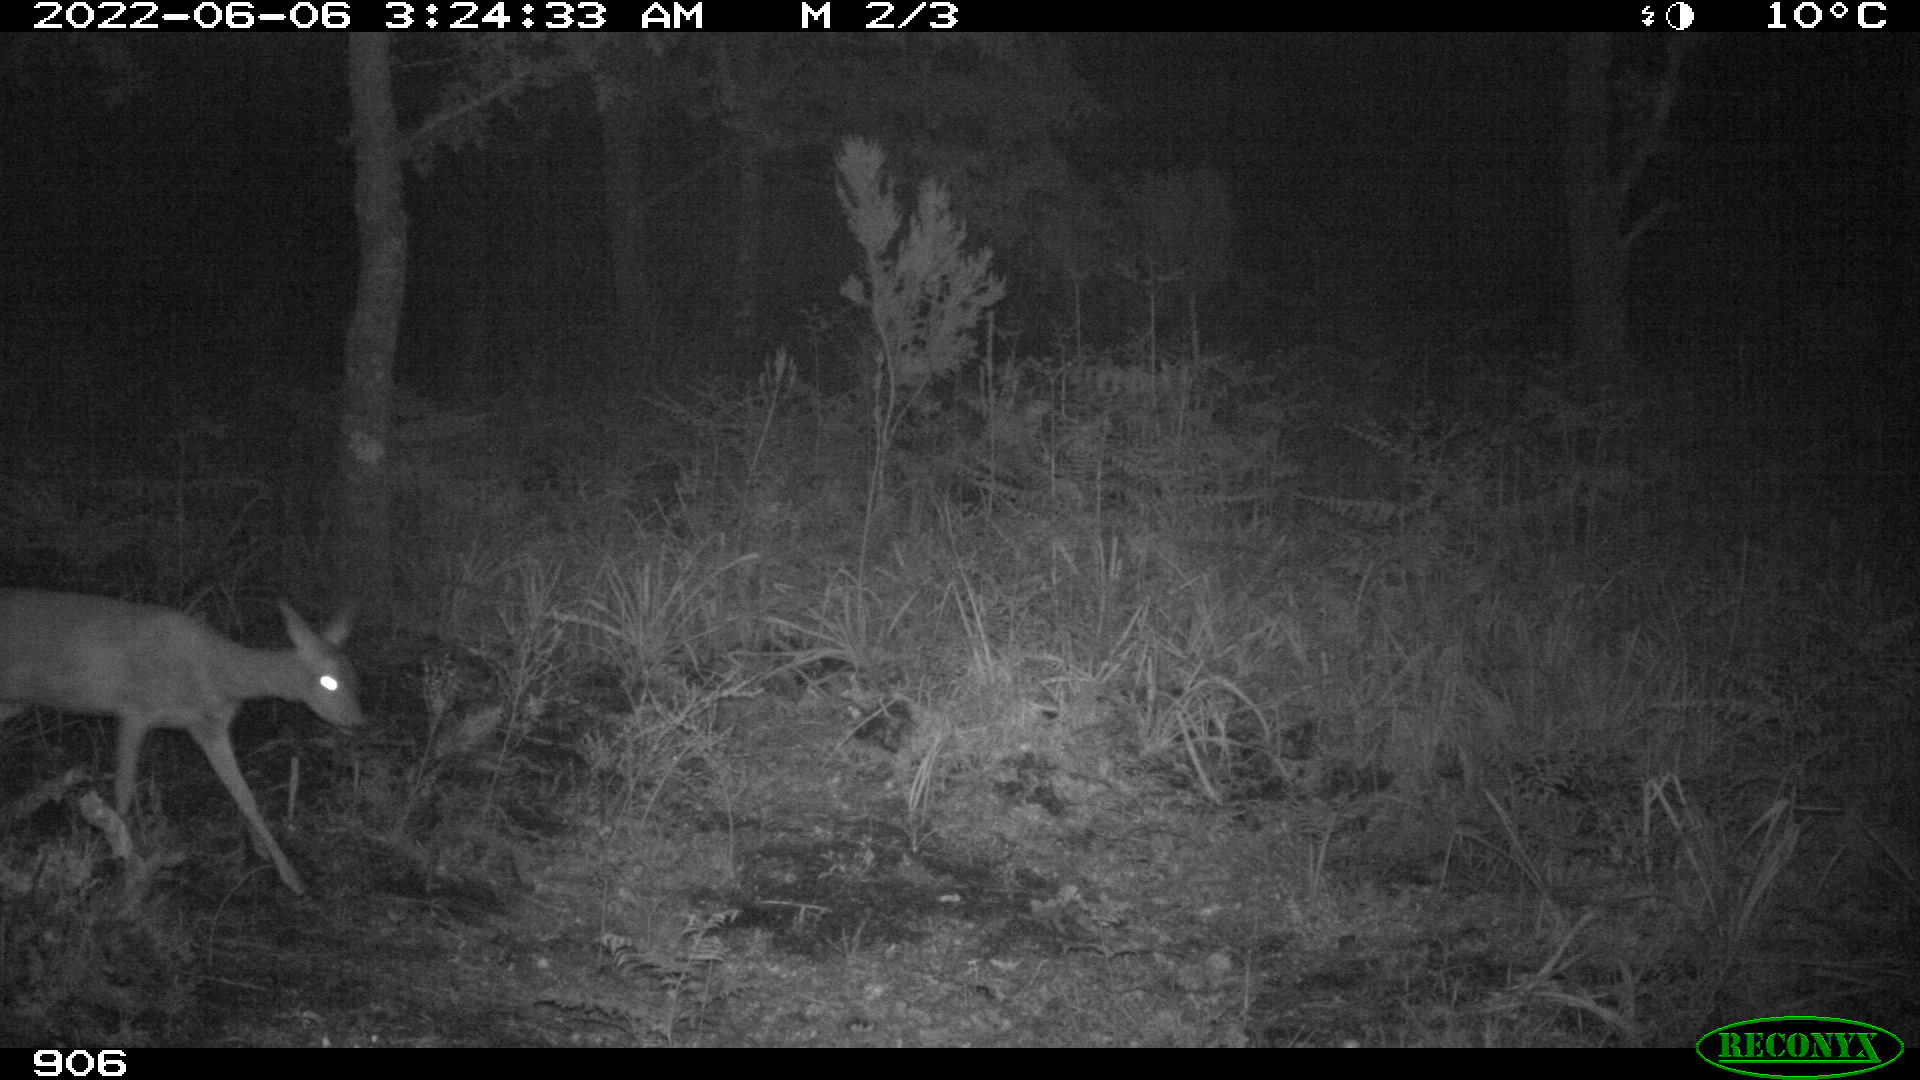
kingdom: Animalia
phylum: Chordata
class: Mammalia
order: Artiodactyla
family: Cervidae
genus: Capreolus
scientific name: Capreolus capreolus
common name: Western roe deer
